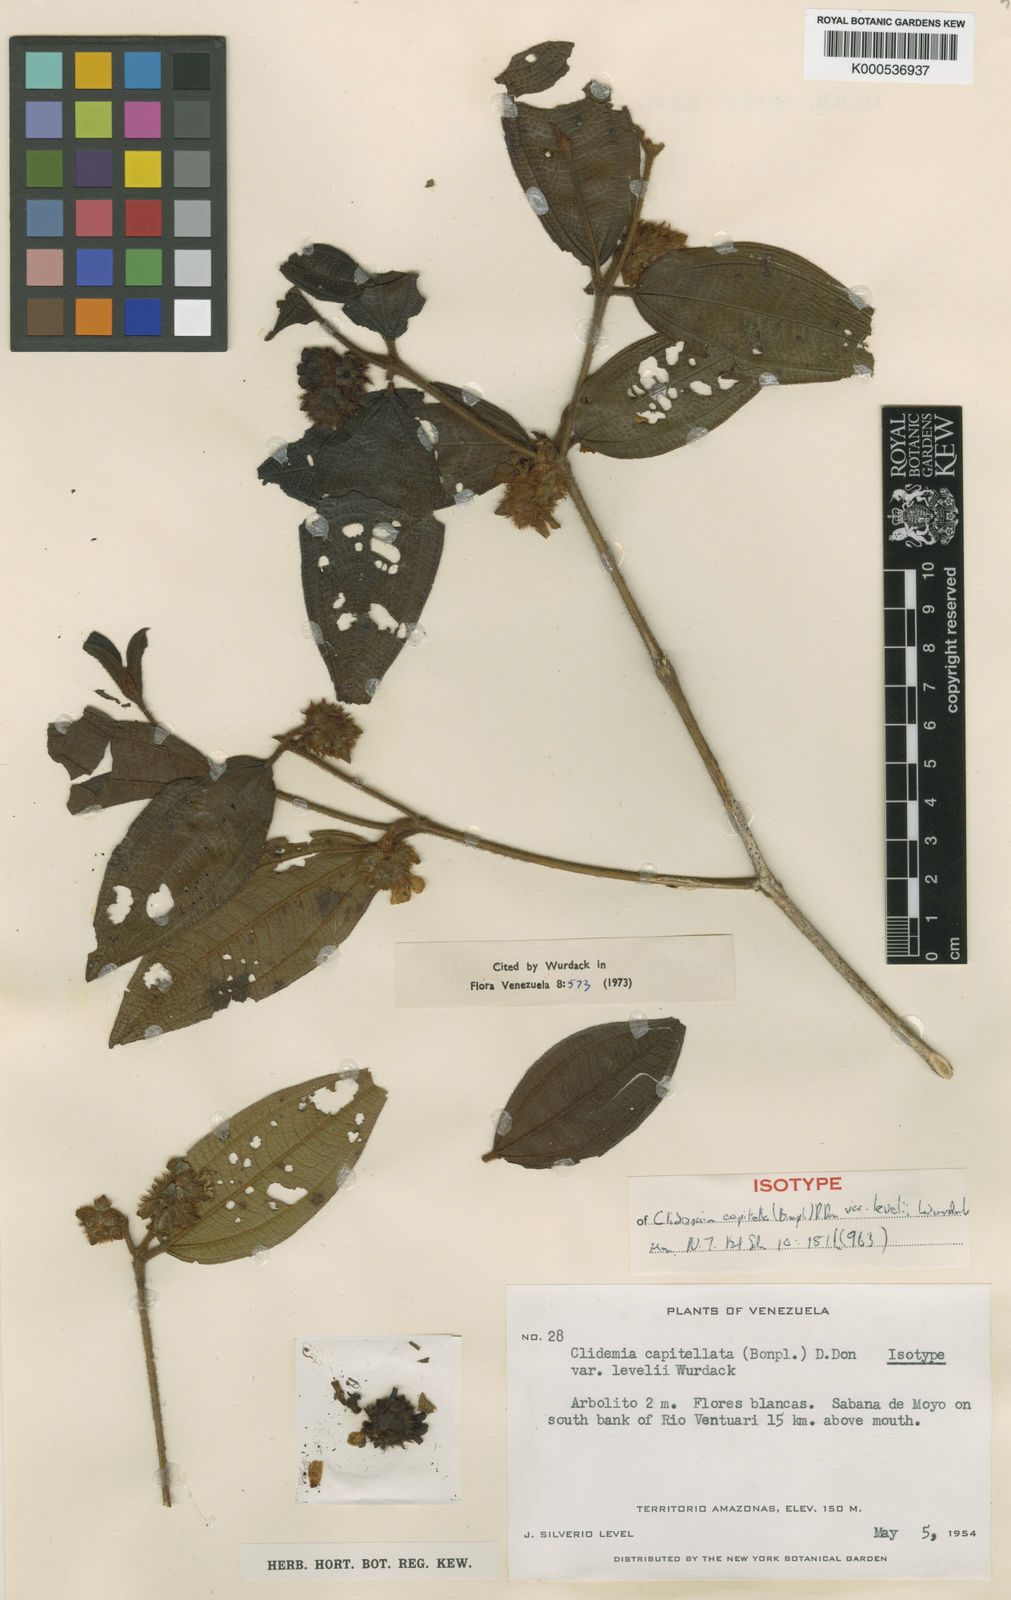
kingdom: Plantae
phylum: Tracheophyta
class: Magnoliopsida
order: Myrtales
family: Melastomataceae
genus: Miconia
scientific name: Miconia dependens
